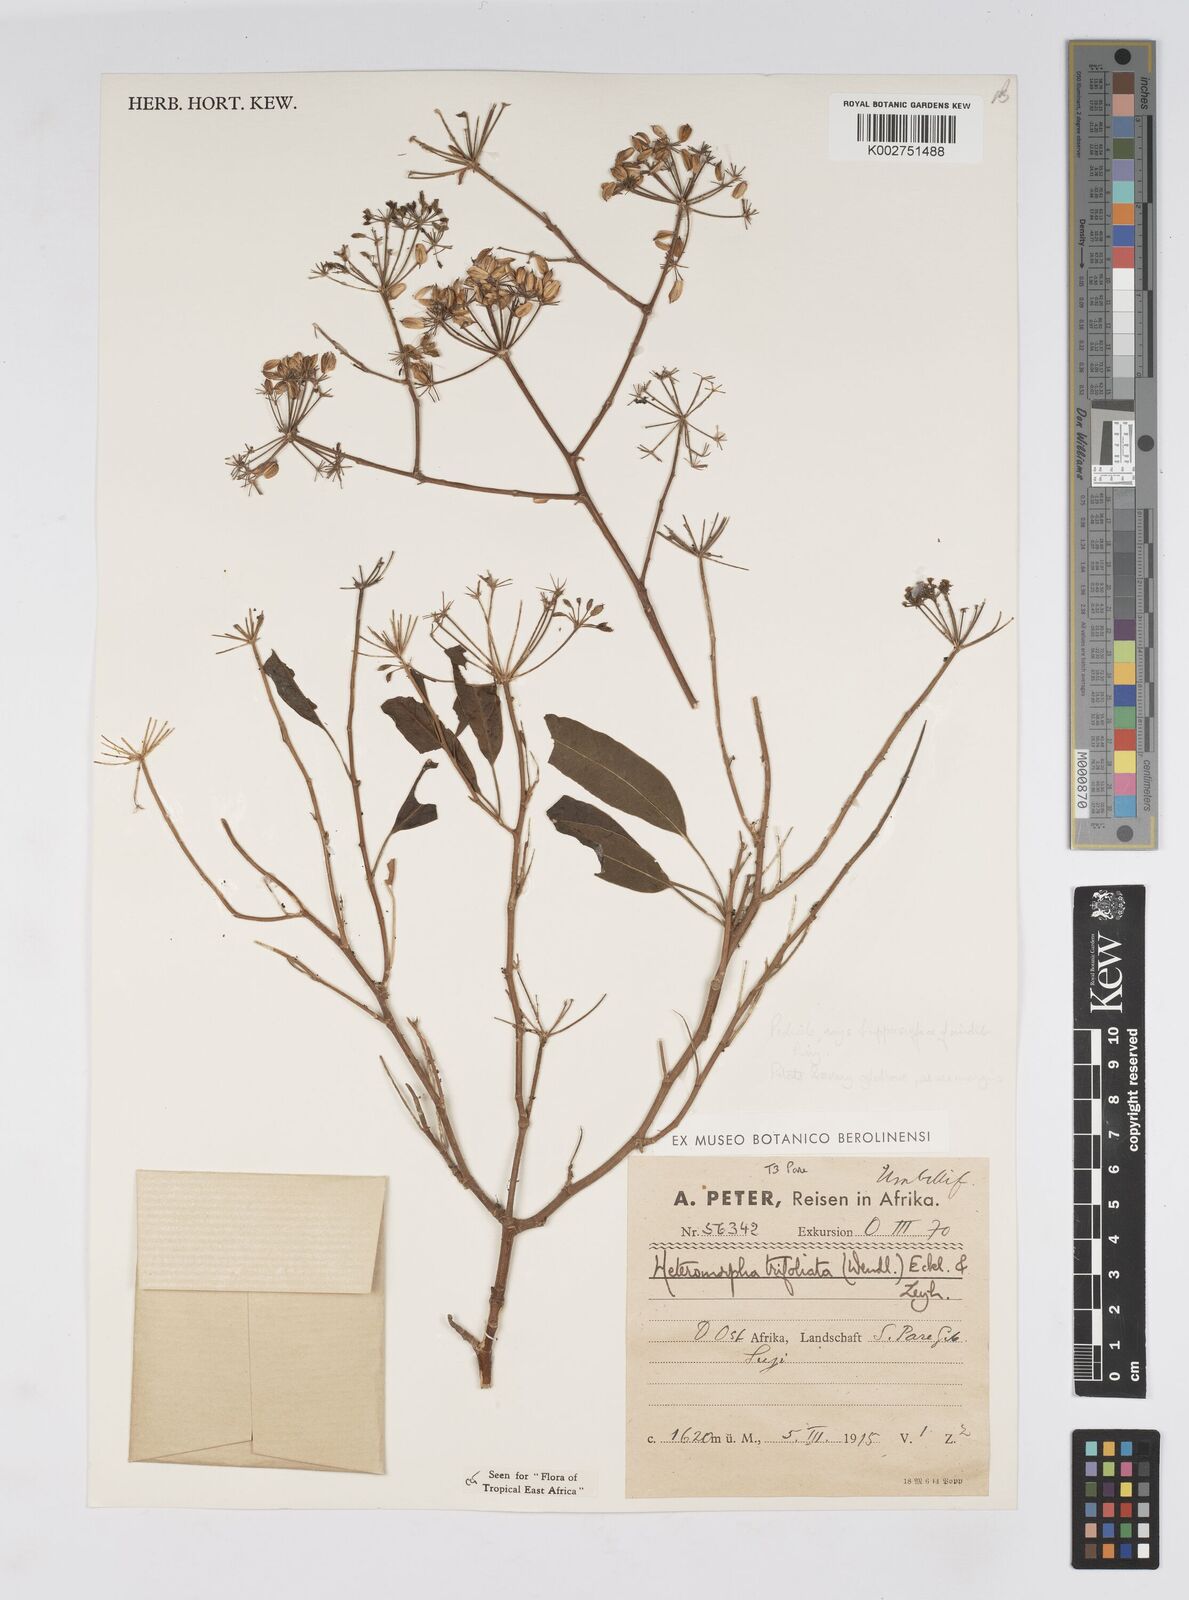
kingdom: Plantae
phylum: Tracheophyta
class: Magnoliopsida
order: Apiales
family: Apiaceae
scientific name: Apiaceae
